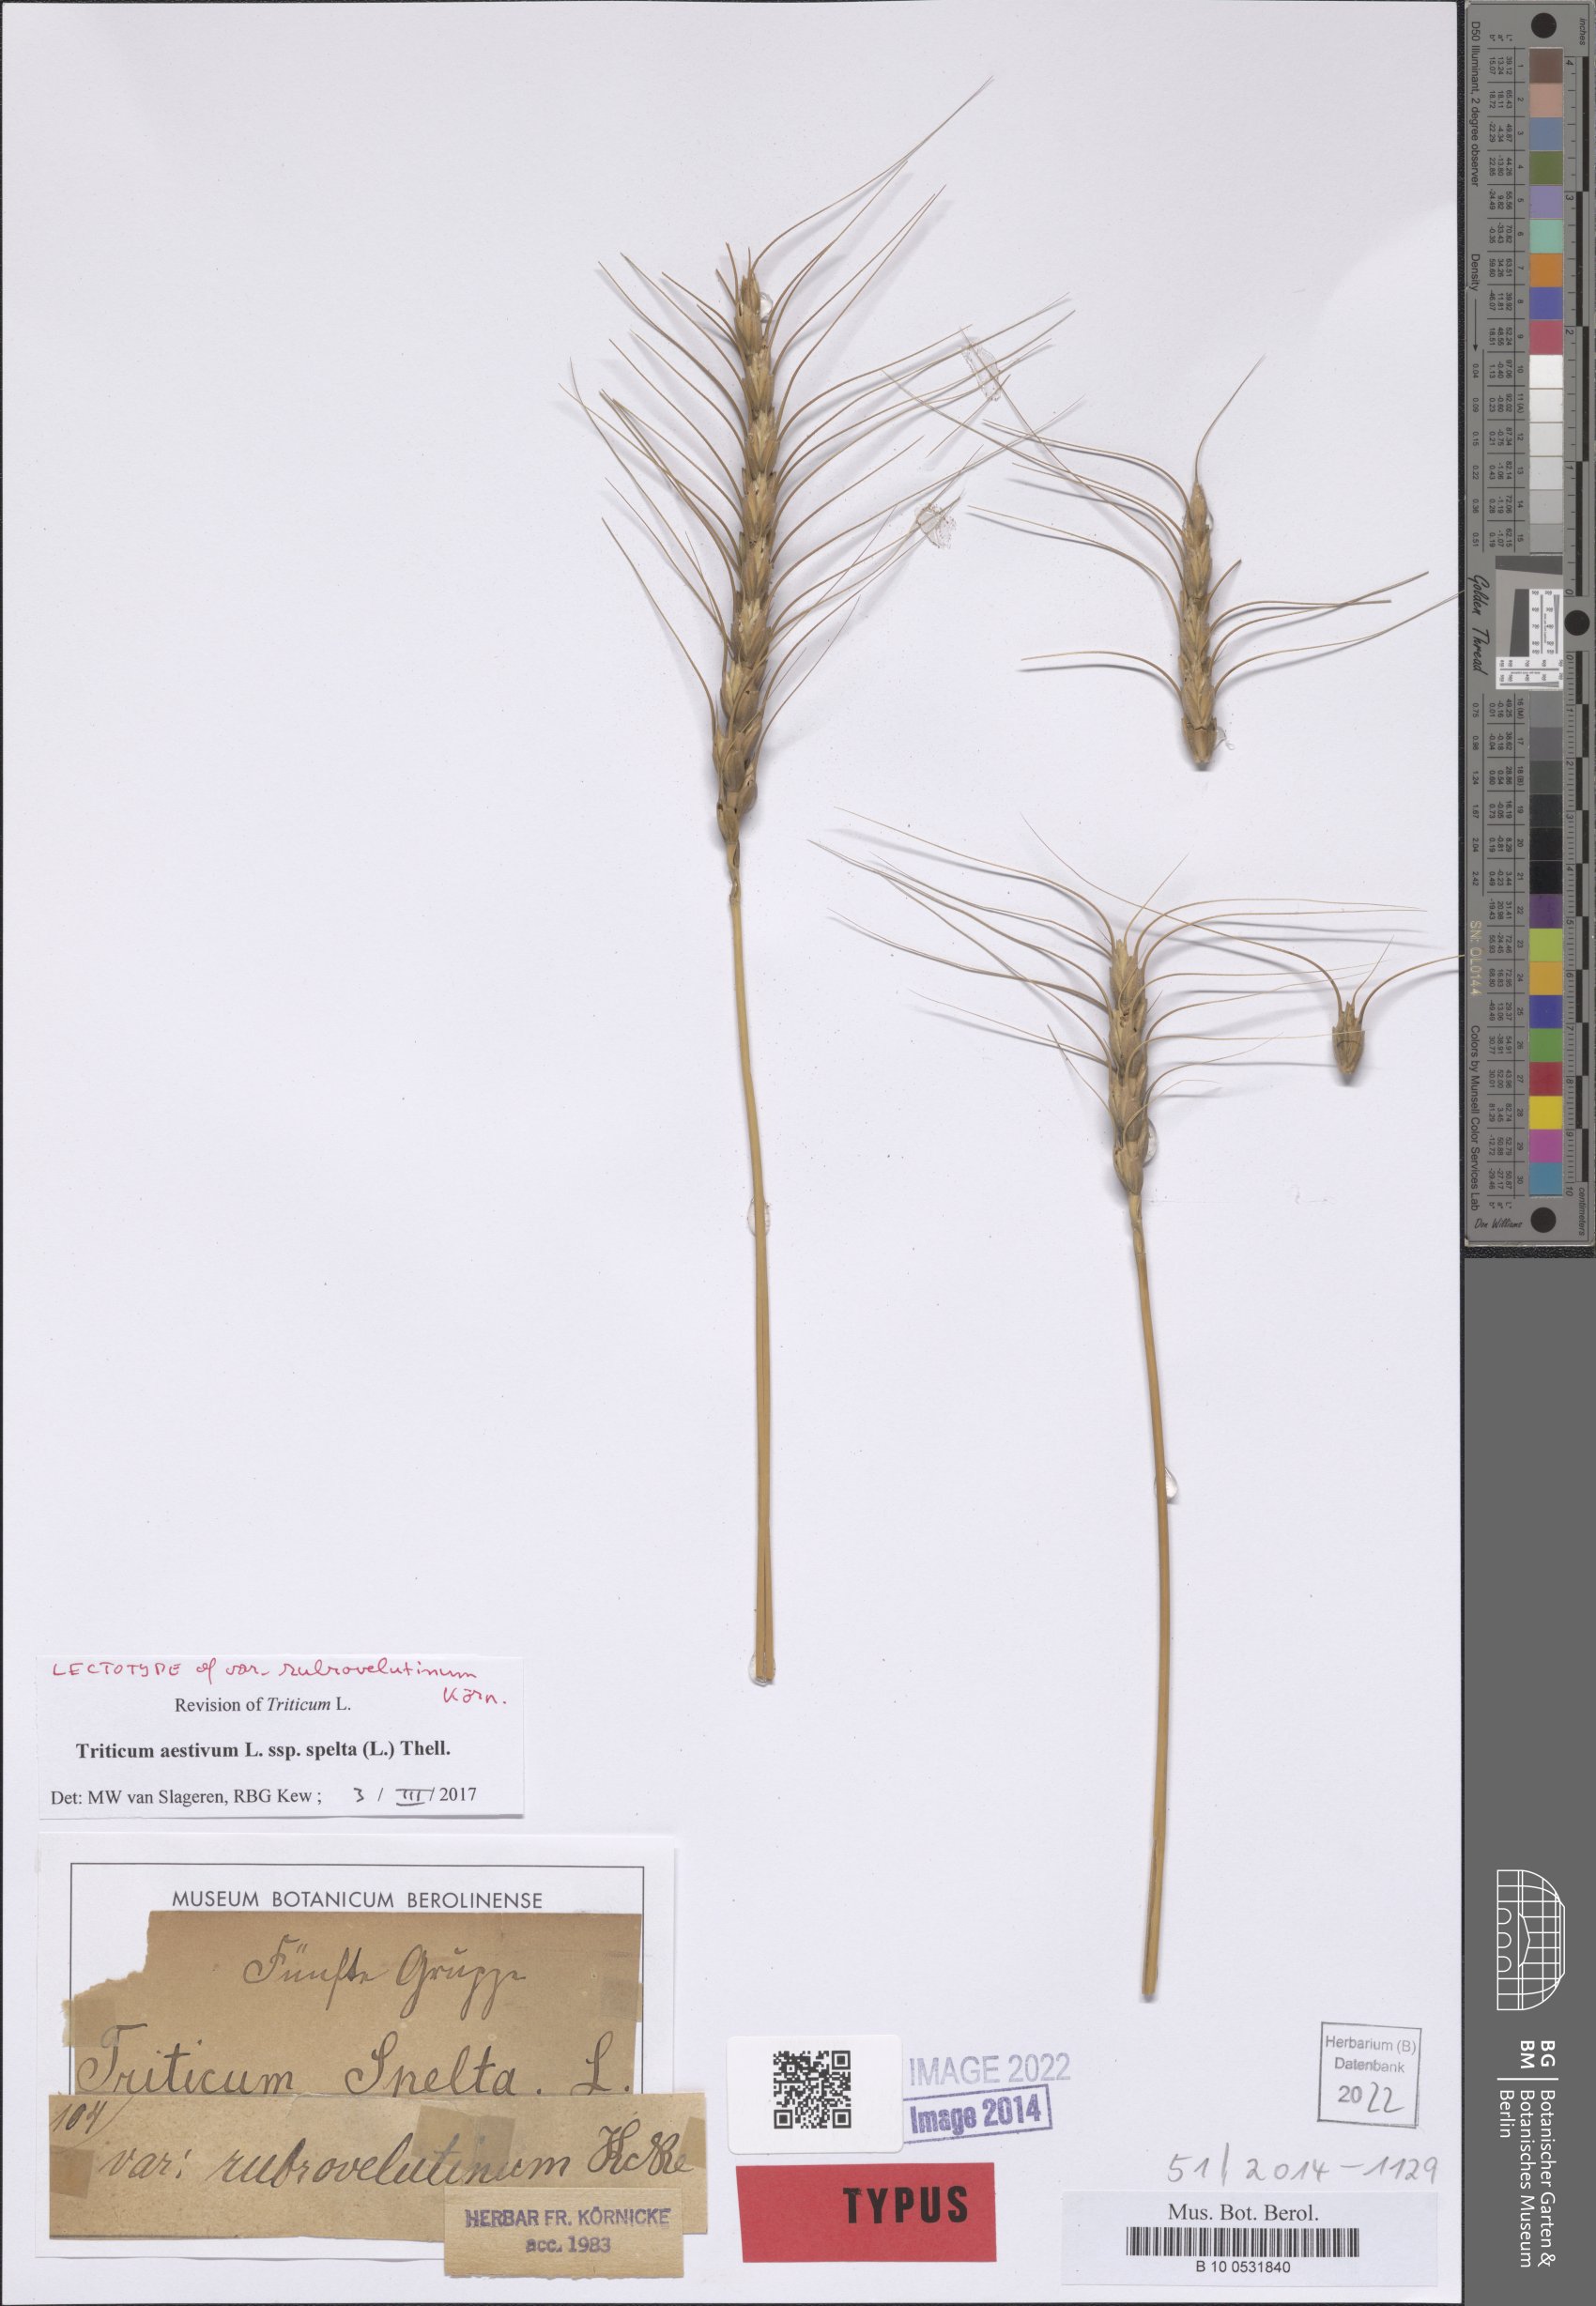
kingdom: Plantae
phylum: Tracheophyta
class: Liliopsida
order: Poales
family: Poaceae
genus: Triticum
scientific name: Triticum aestivum
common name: Common wheat
